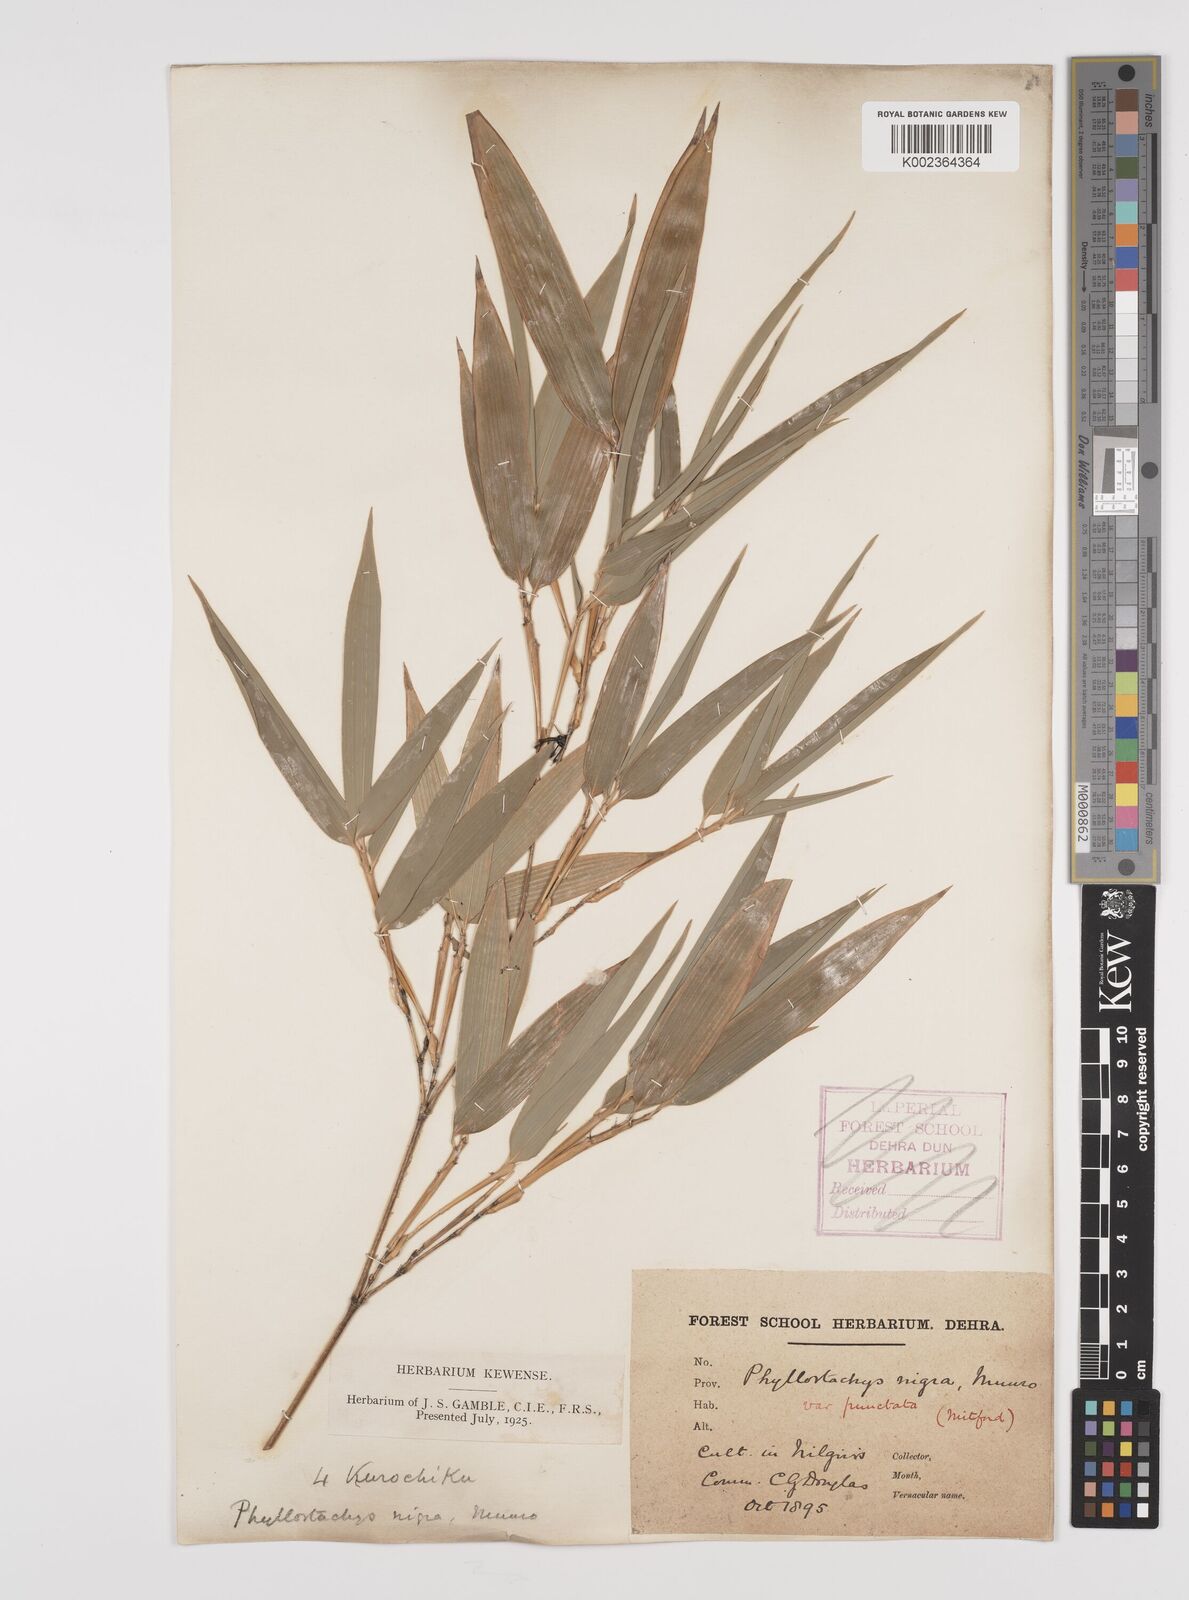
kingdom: Plantae
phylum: Tracheophyta
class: Liliopsida
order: Poales
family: Poaceae
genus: Phyllostachys
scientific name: Phyllostachys nigra
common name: Black bamboo
